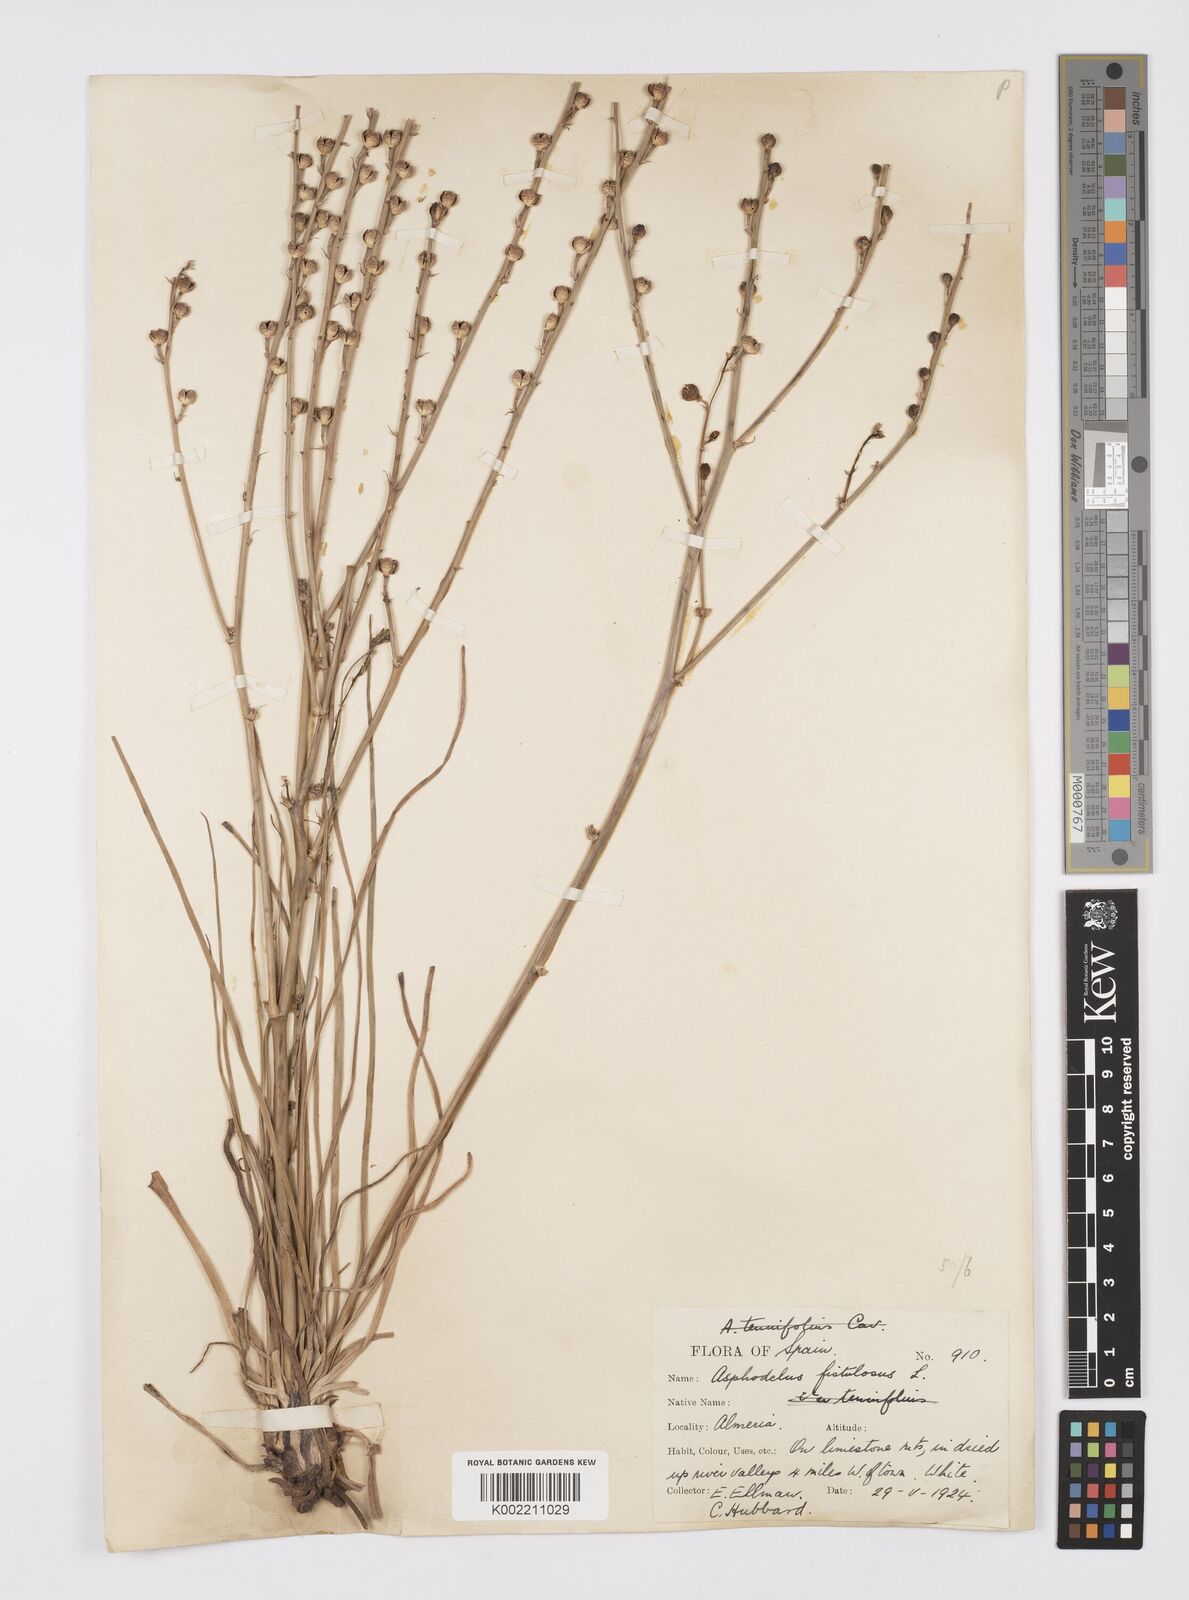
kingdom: Plantae
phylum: Tracheophyta
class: Liliopsida
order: Asparagales
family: Asphodelaceae
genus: Asphodelus
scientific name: Asphodelus fistulosus
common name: Onionweed
